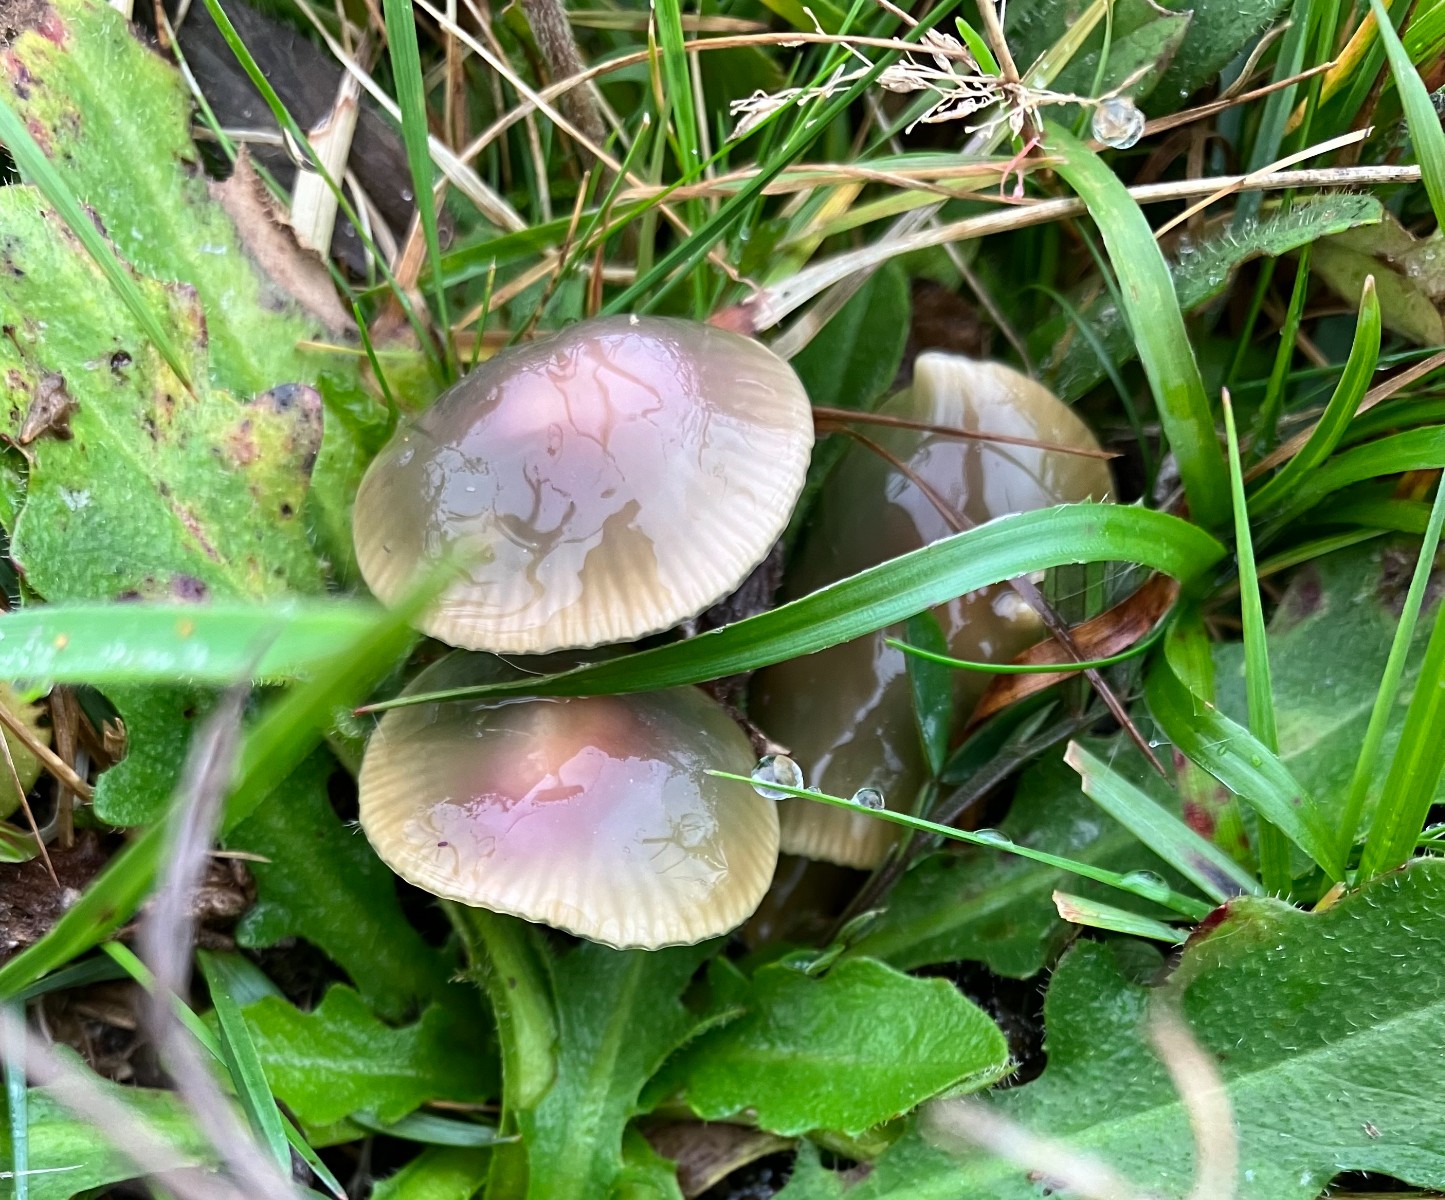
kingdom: Fungi
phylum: Basidiomycota
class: Agaricomycetes
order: Agaricales
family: Hygrophoraceae
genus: Gliophorus
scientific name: Gliophorus psittacinus
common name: papegøje-vokshat
